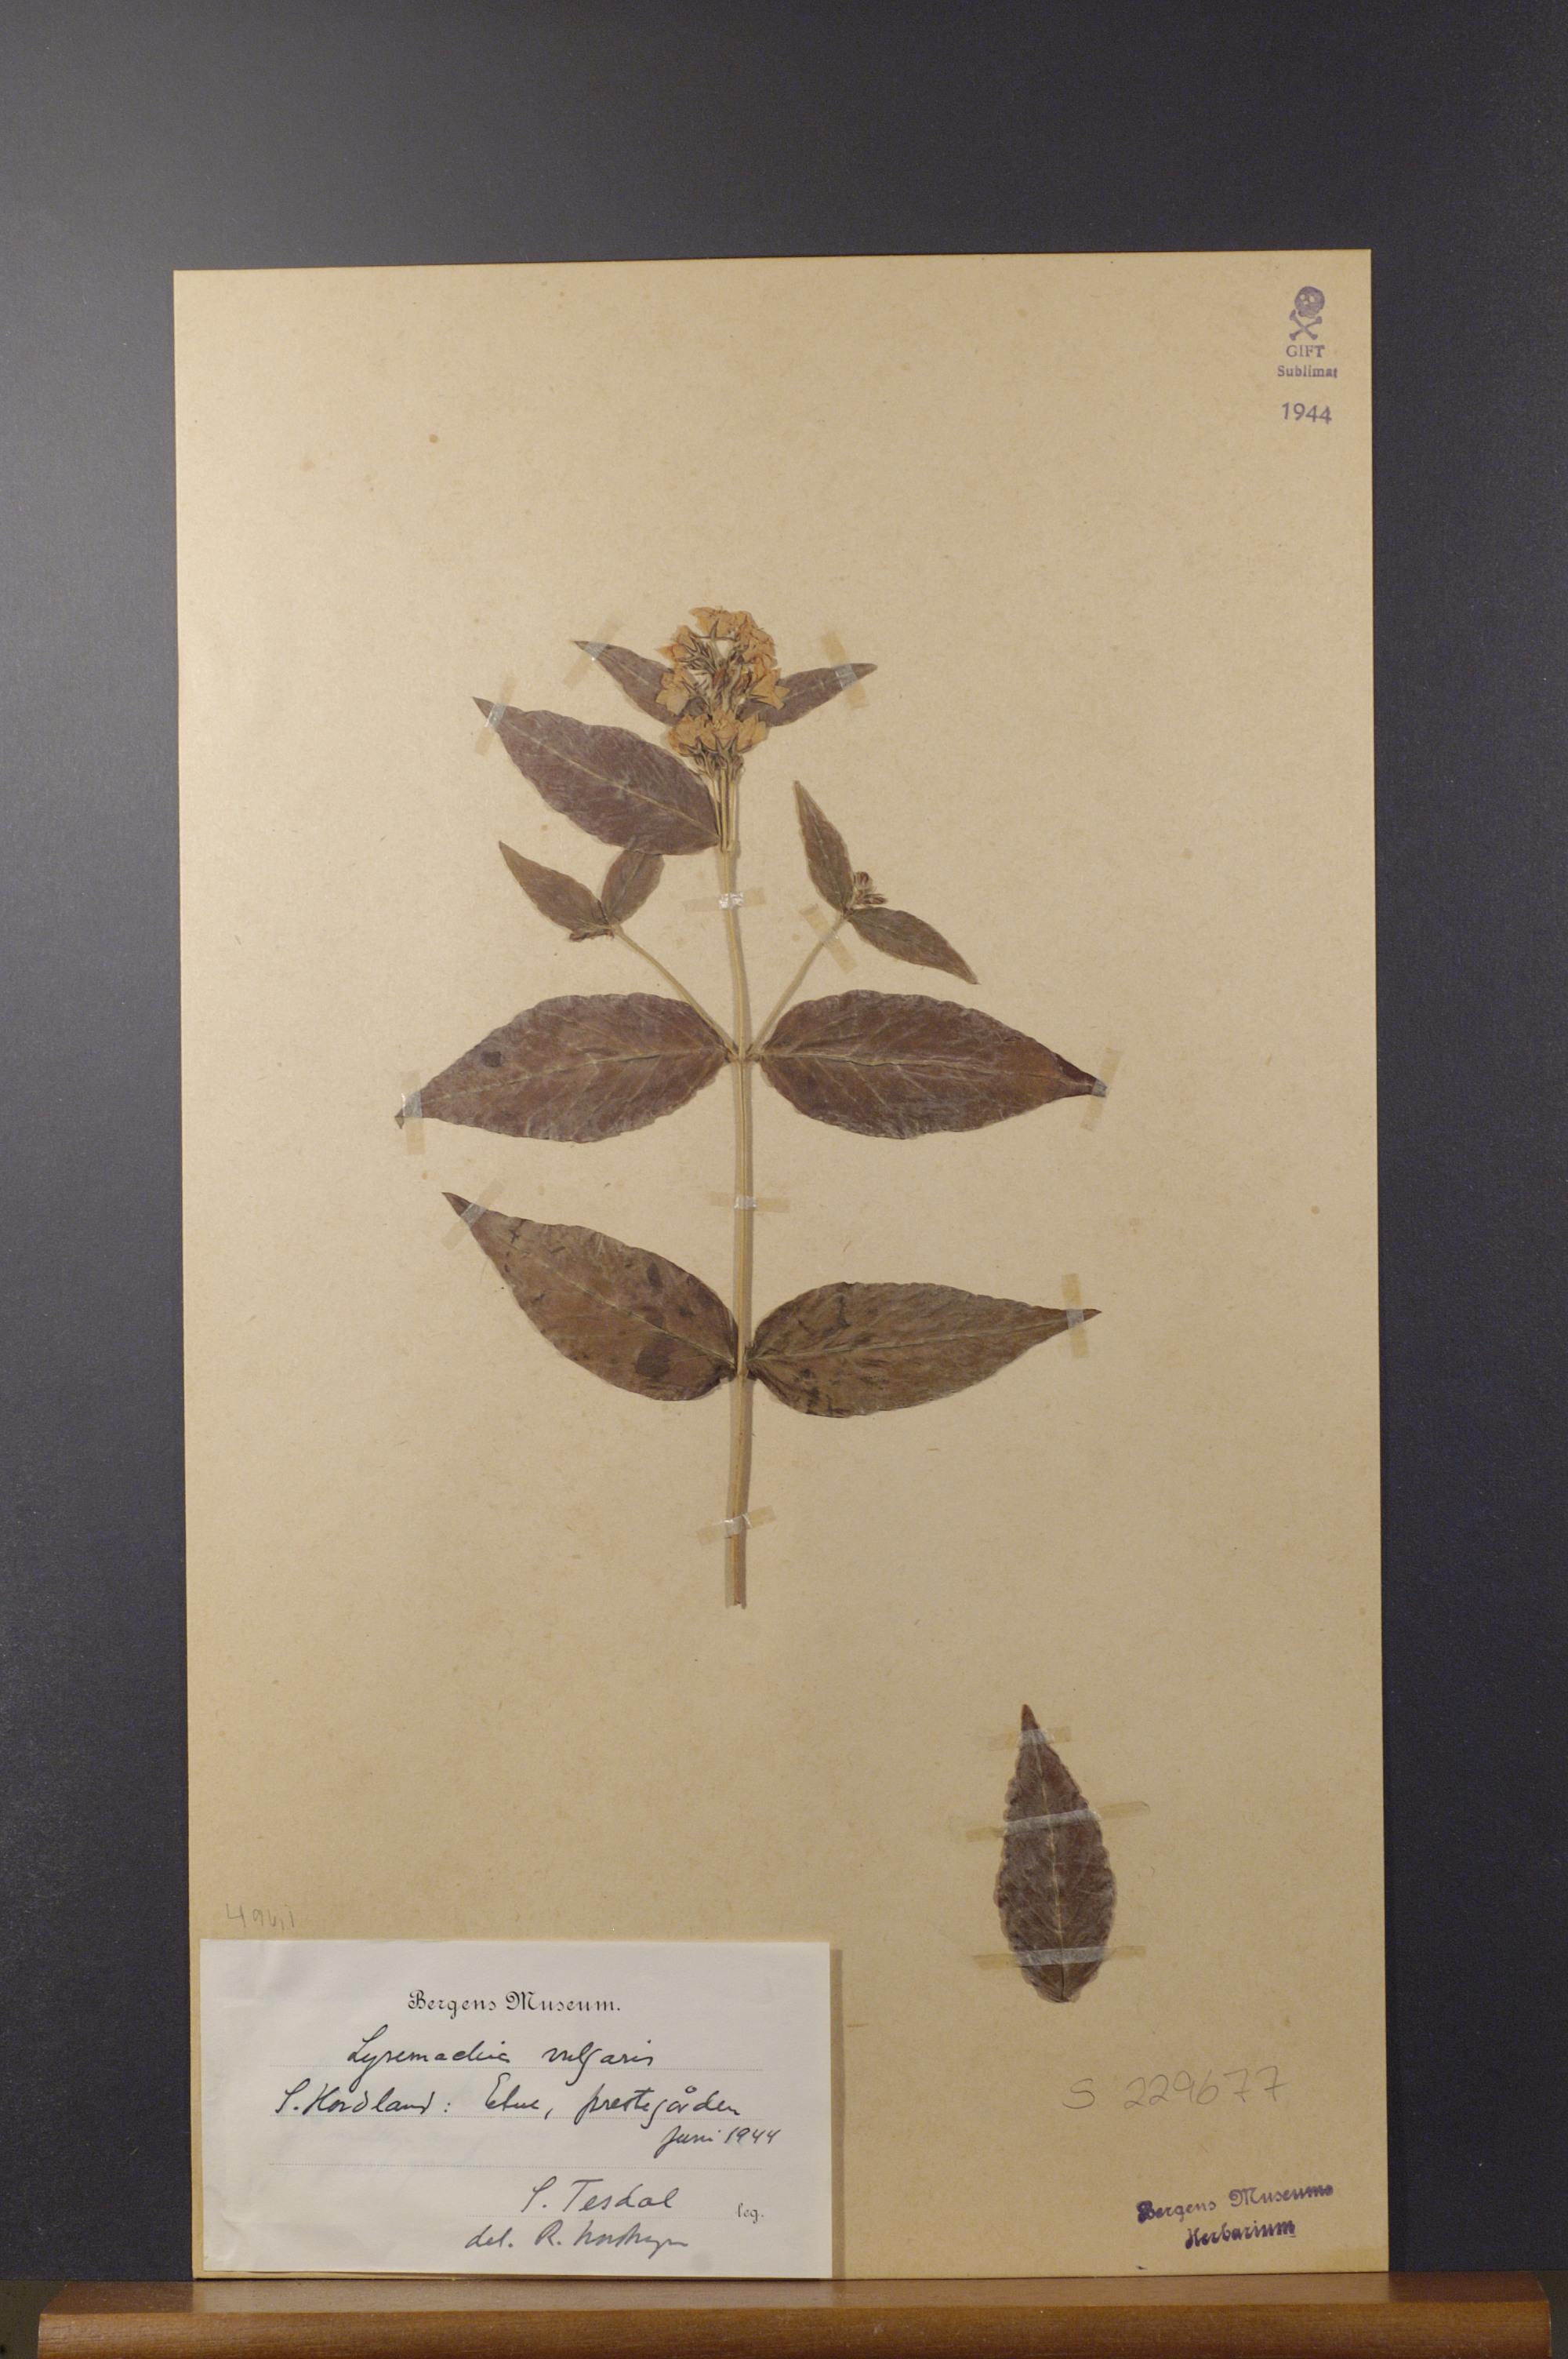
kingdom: Plantae
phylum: Tracheophyta
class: Magnoliopsida
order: Ericales
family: Primulaceae
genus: Lysimachia
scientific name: Lysimachia vulgaris
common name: Yellow loosestrife
